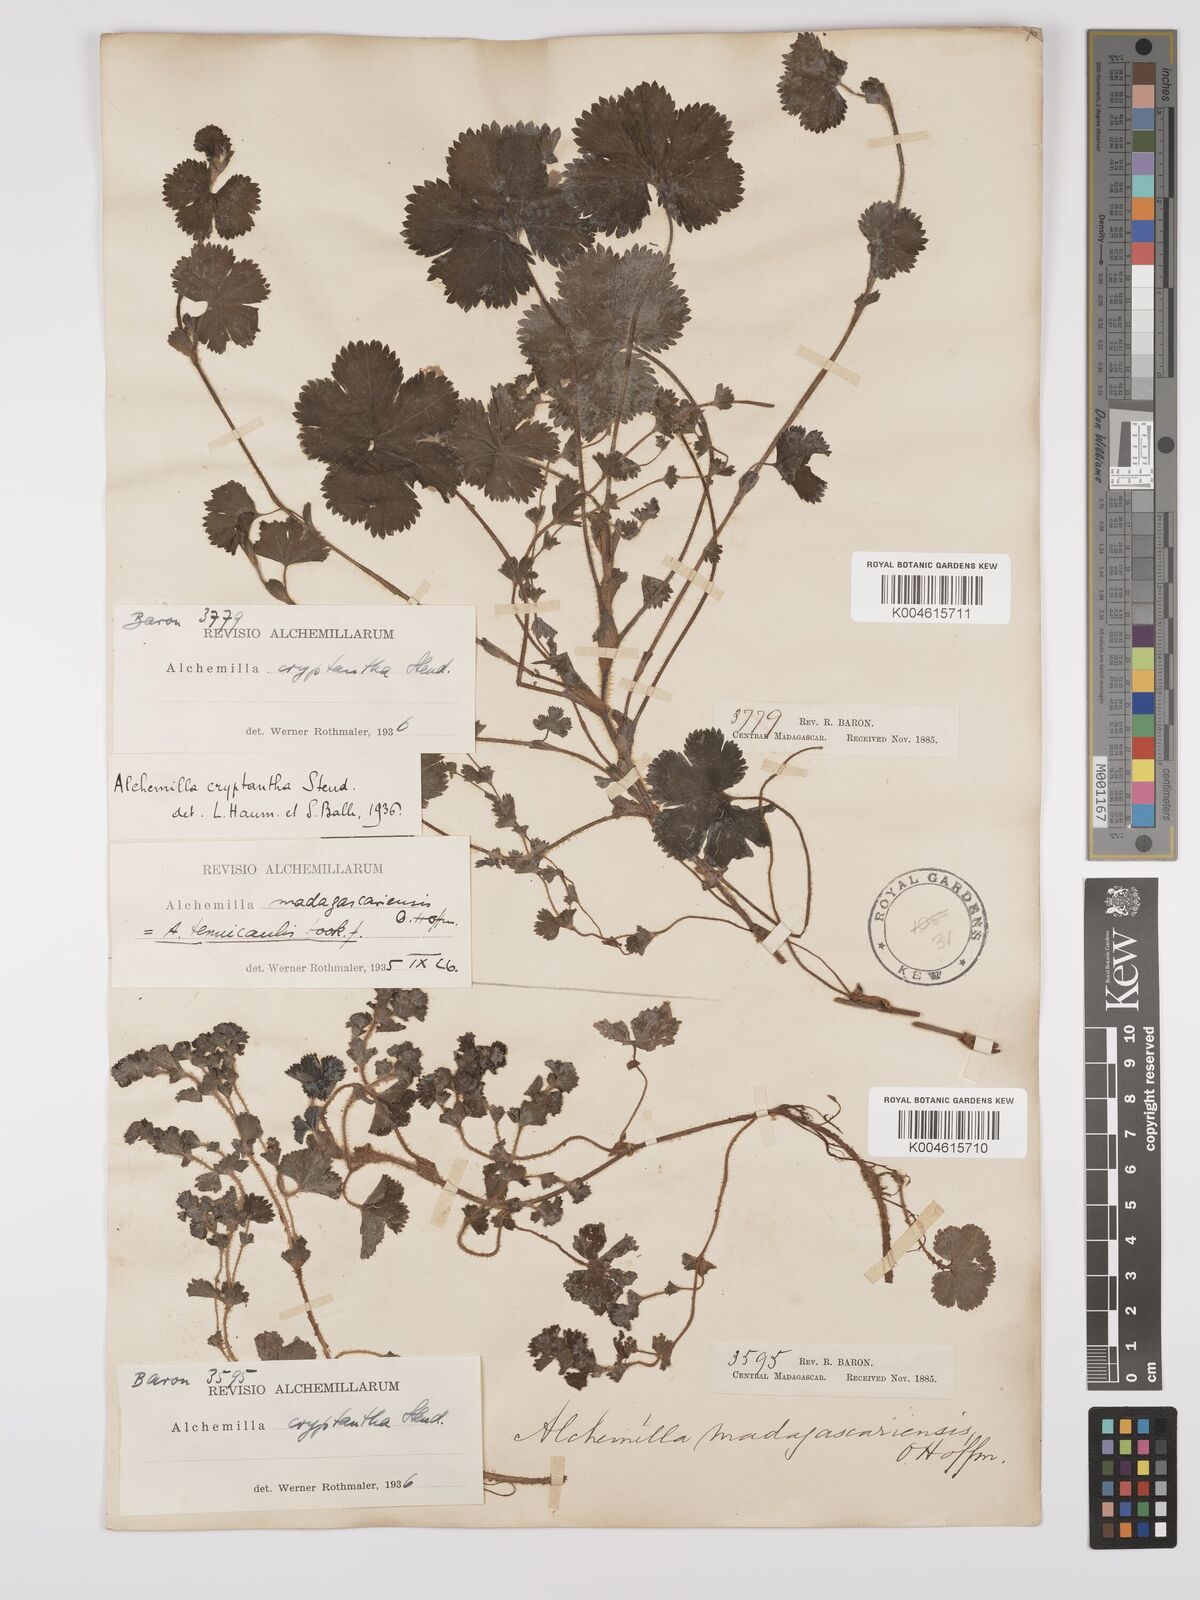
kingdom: Plantae
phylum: Tracheophyta
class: Magnoliopsida
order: Rosales
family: Rosaceae
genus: Alchemilla
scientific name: Alchemilla cryptantha
